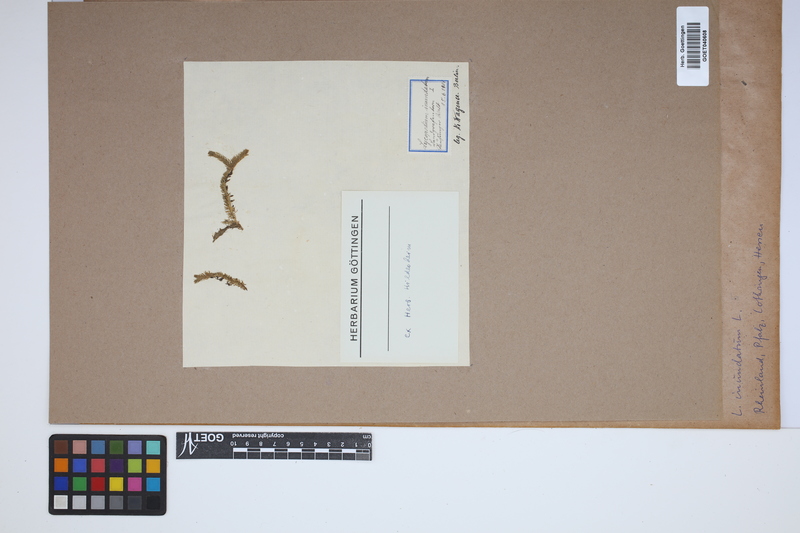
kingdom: Plantae
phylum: Tracheophyta
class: Lycopodiopsida
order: Lycopodiales
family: Lycopodiaceae
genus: Lycopodiella
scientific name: Lycopodiella inundata
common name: Marsh clubmoss
